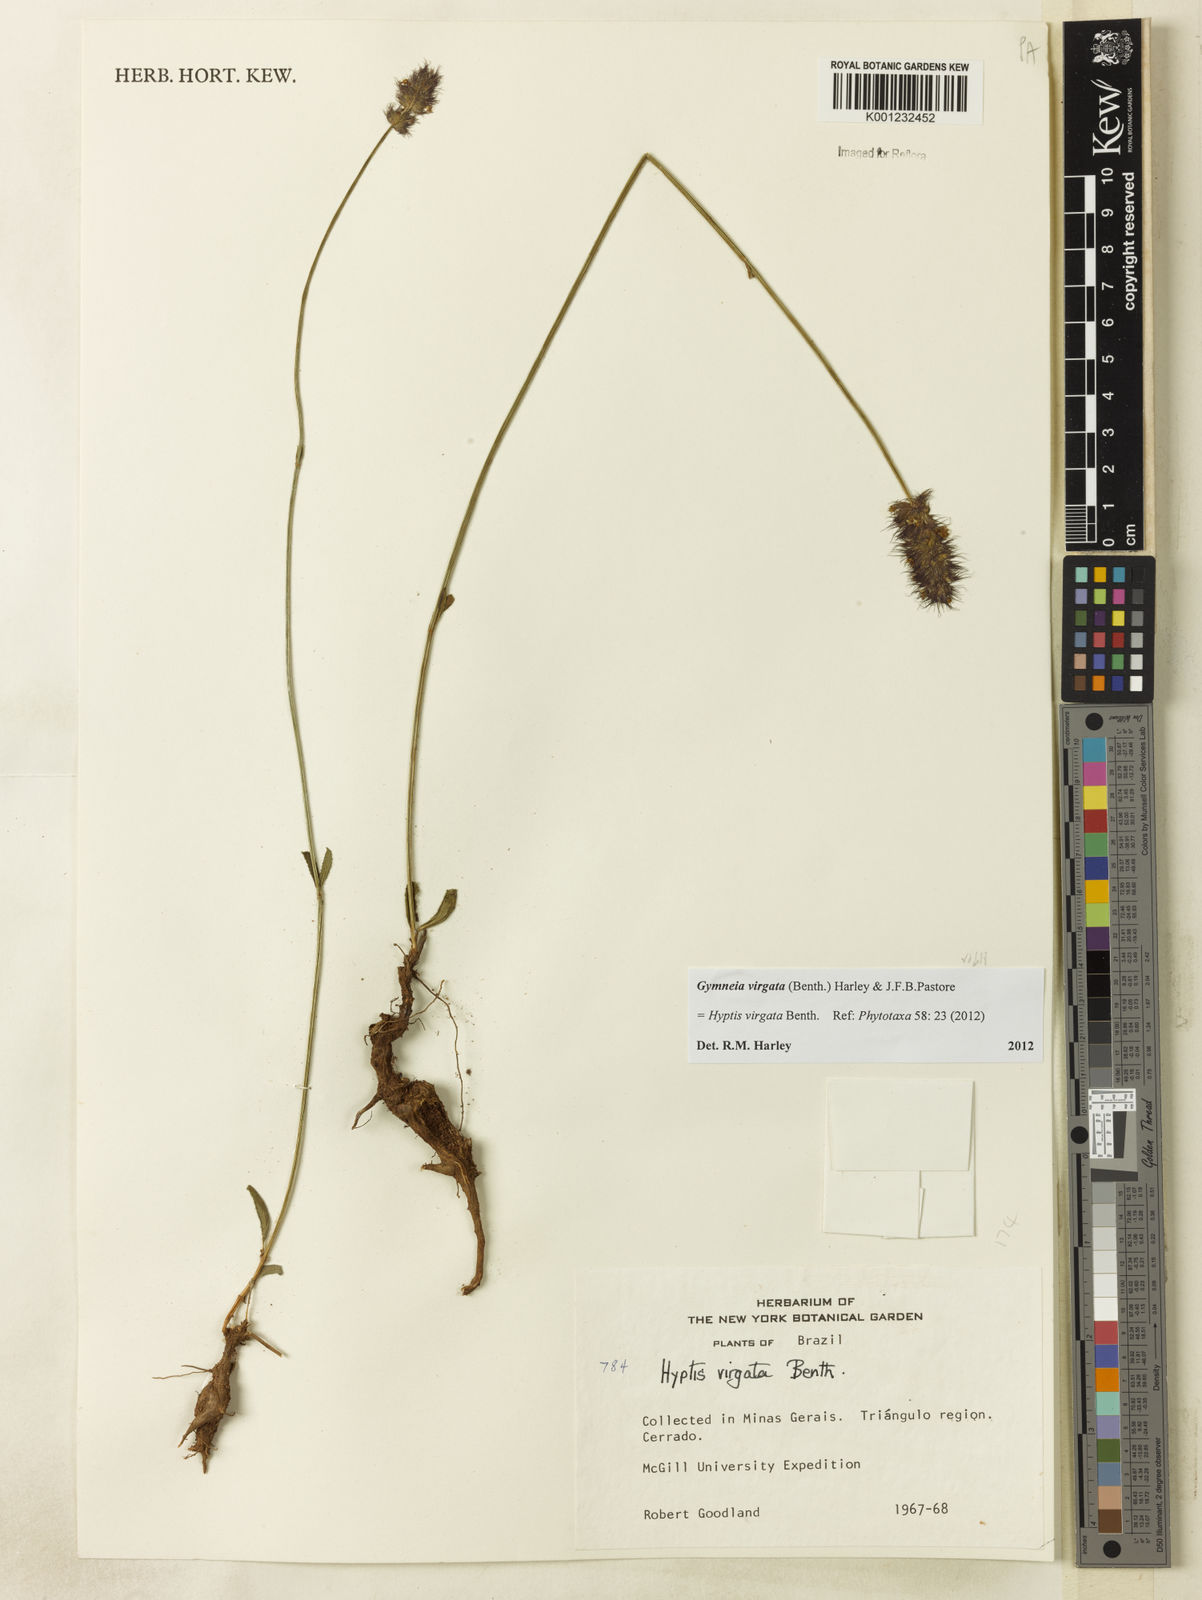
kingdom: Plantae
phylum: Tracheophyta
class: Magnoliopsida
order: Lamiales
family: Lamiaceae
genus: Gymneia
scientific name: Gymneia virgata
